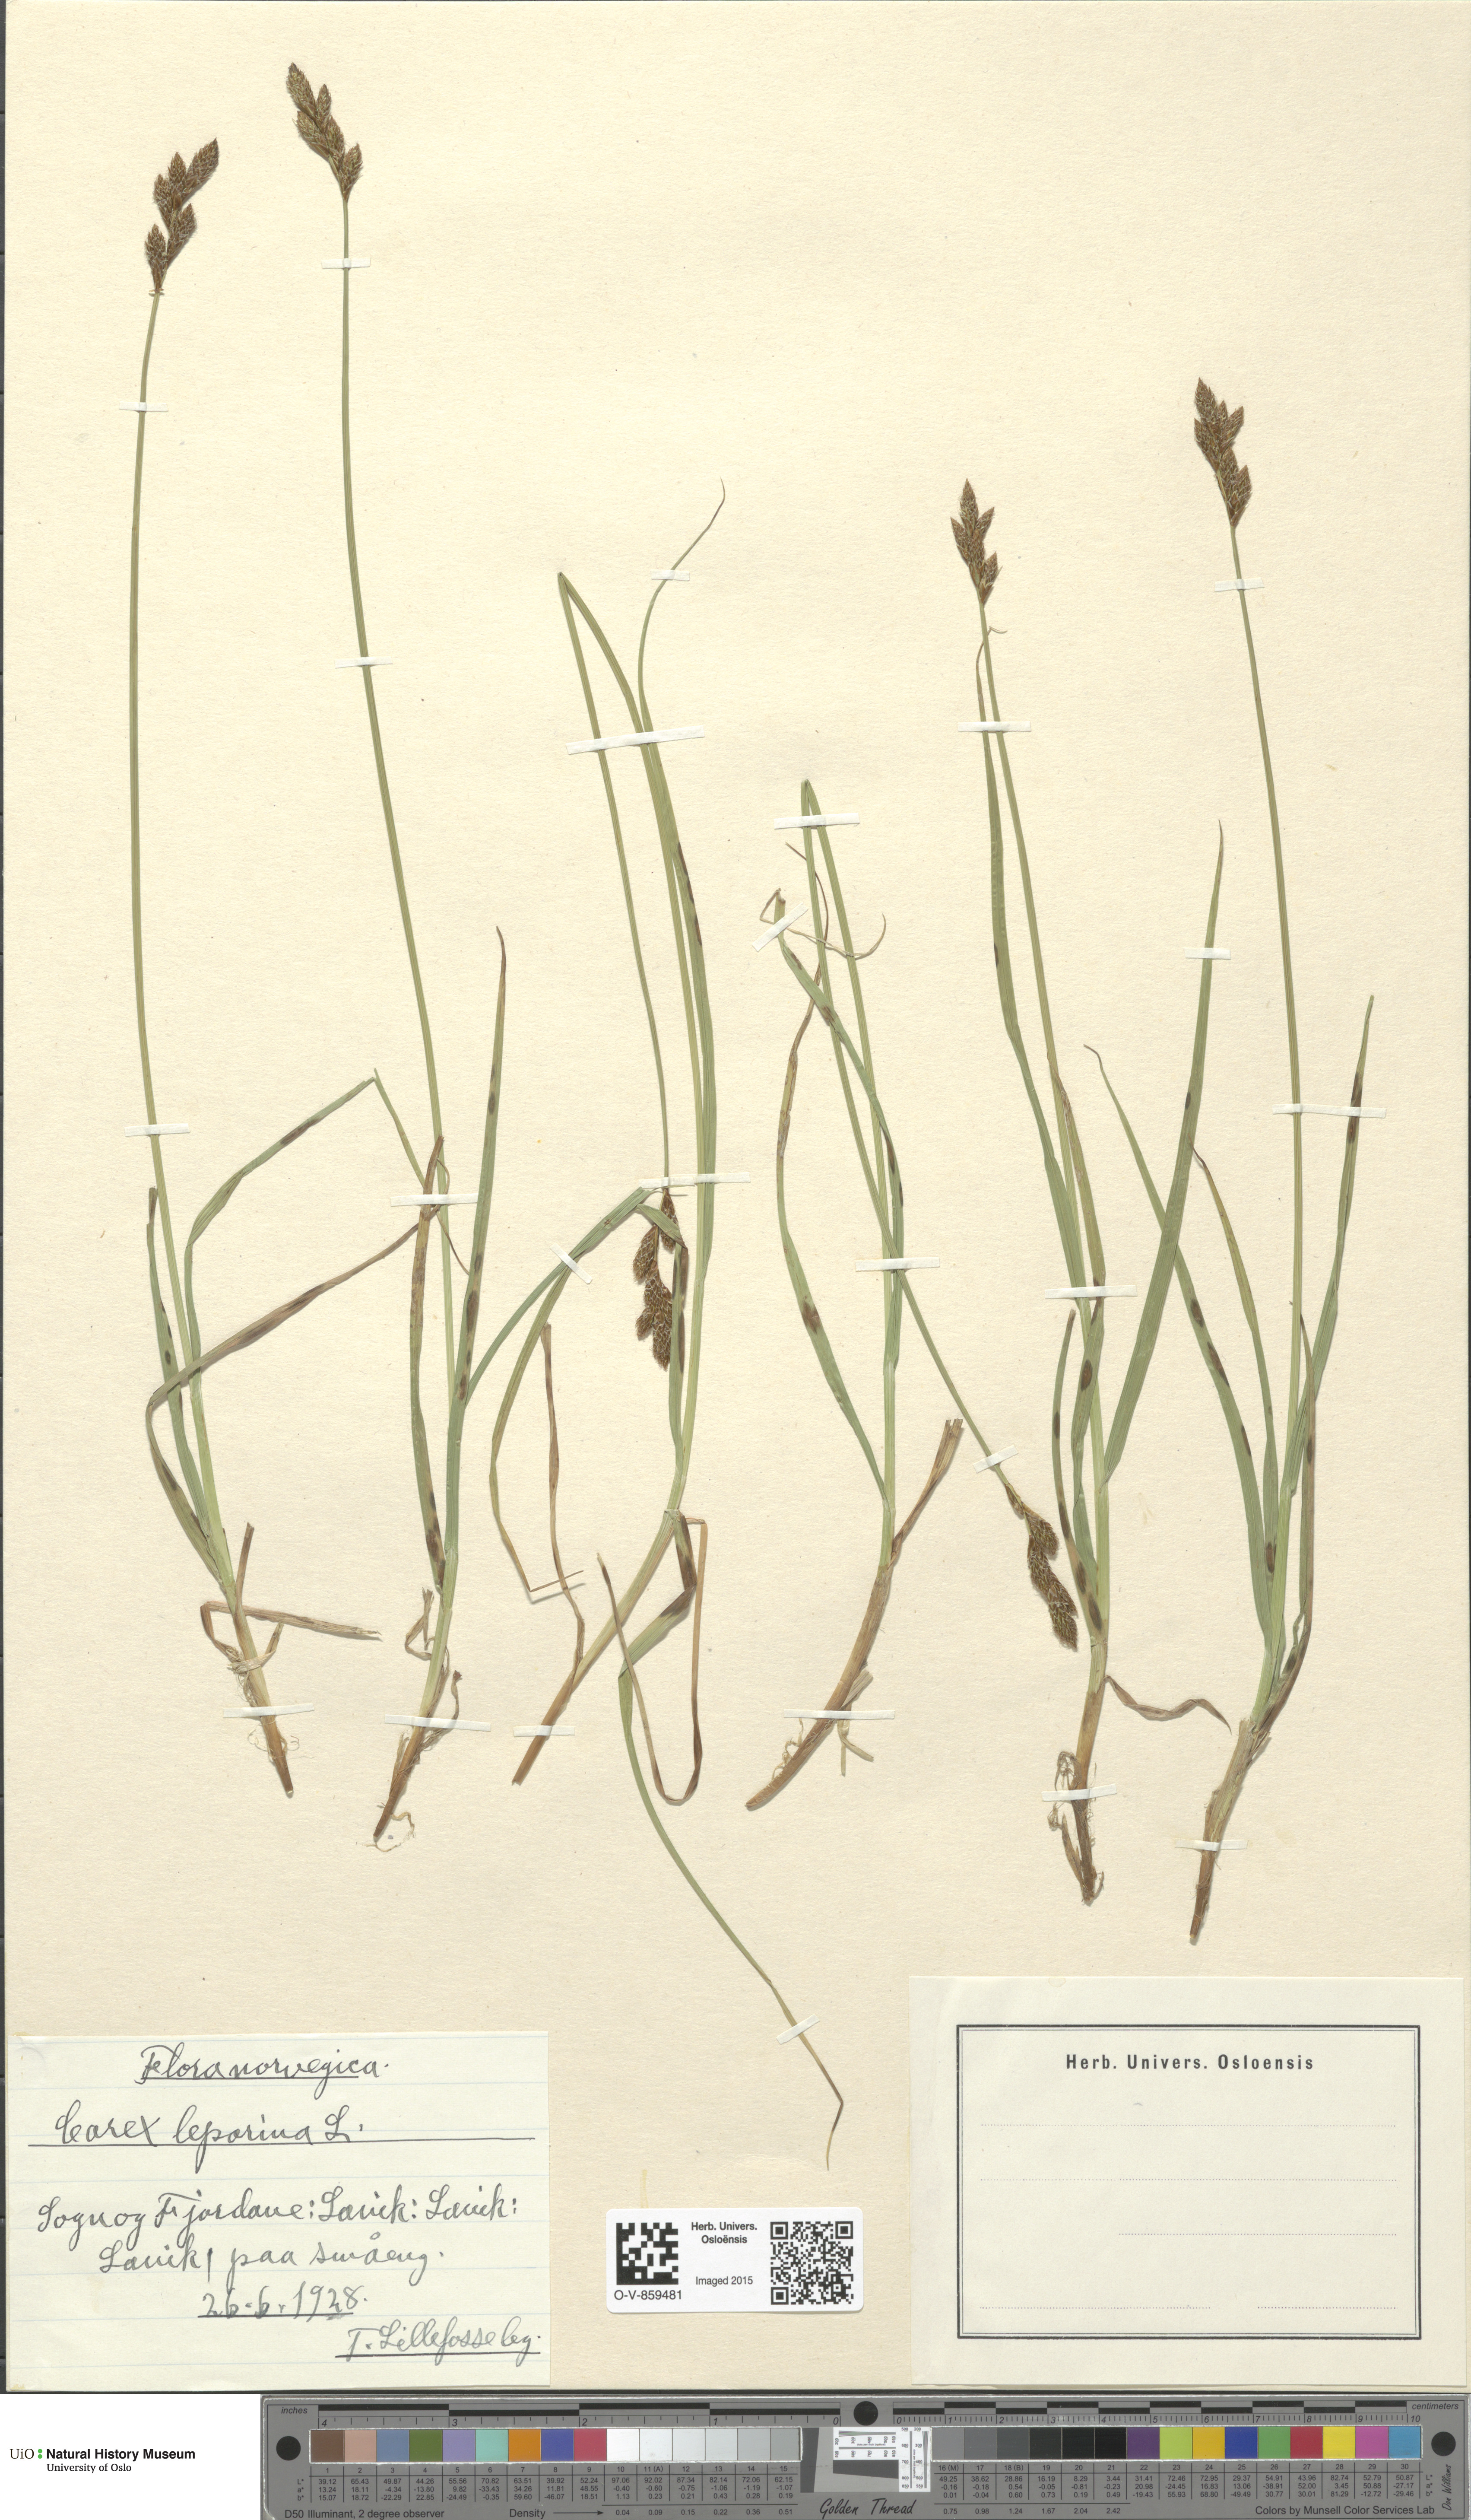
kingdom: Plantae
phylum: Tracheophyta
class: Liliopsida
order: Poales
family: Cyperaceae
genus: Carex
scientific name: Carex leporina
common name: Oval sedge
